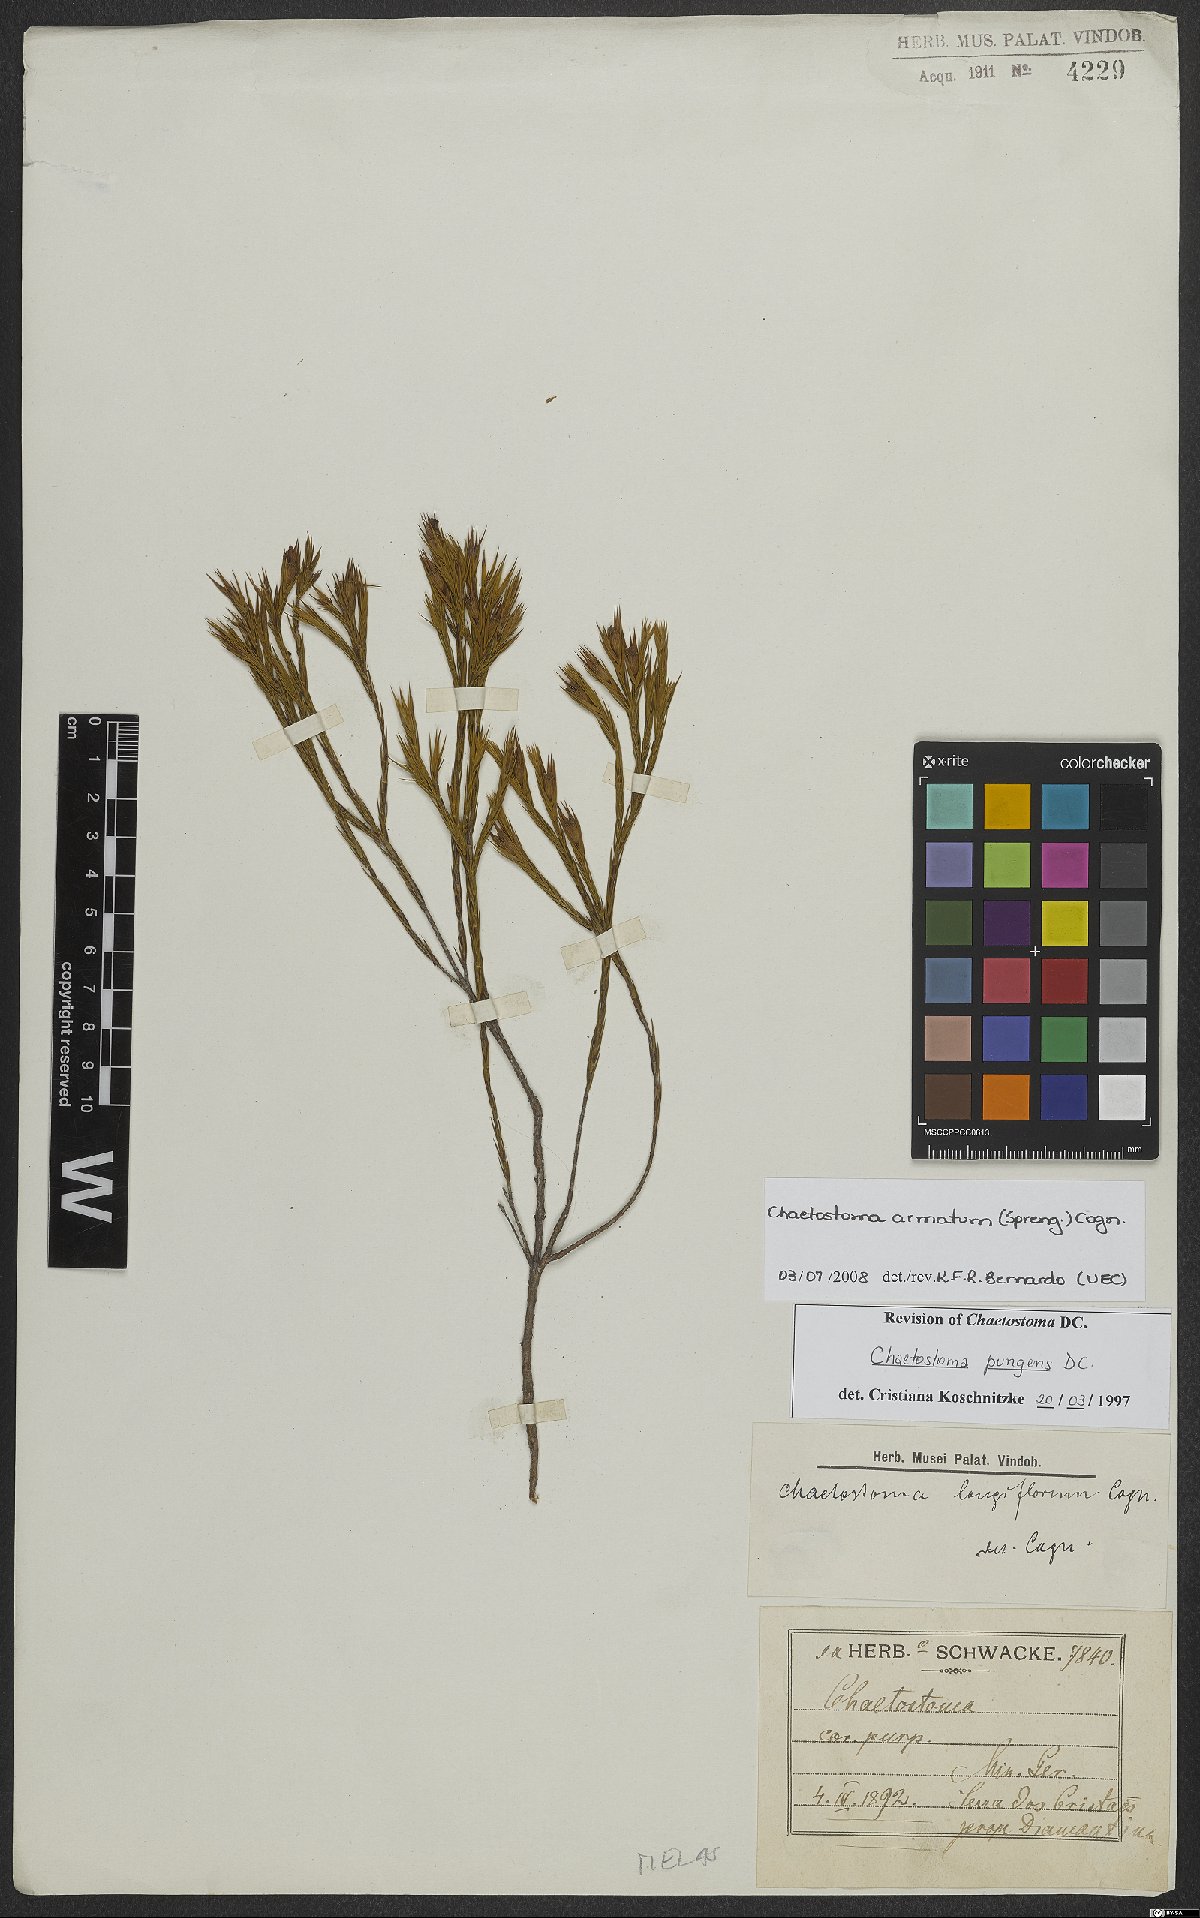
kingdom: Plantae
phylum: Tracheophyta
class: Magnoliopsida
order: Myrtales
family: Melastomataceae
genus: Microlicia
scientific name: Microlicia armata
